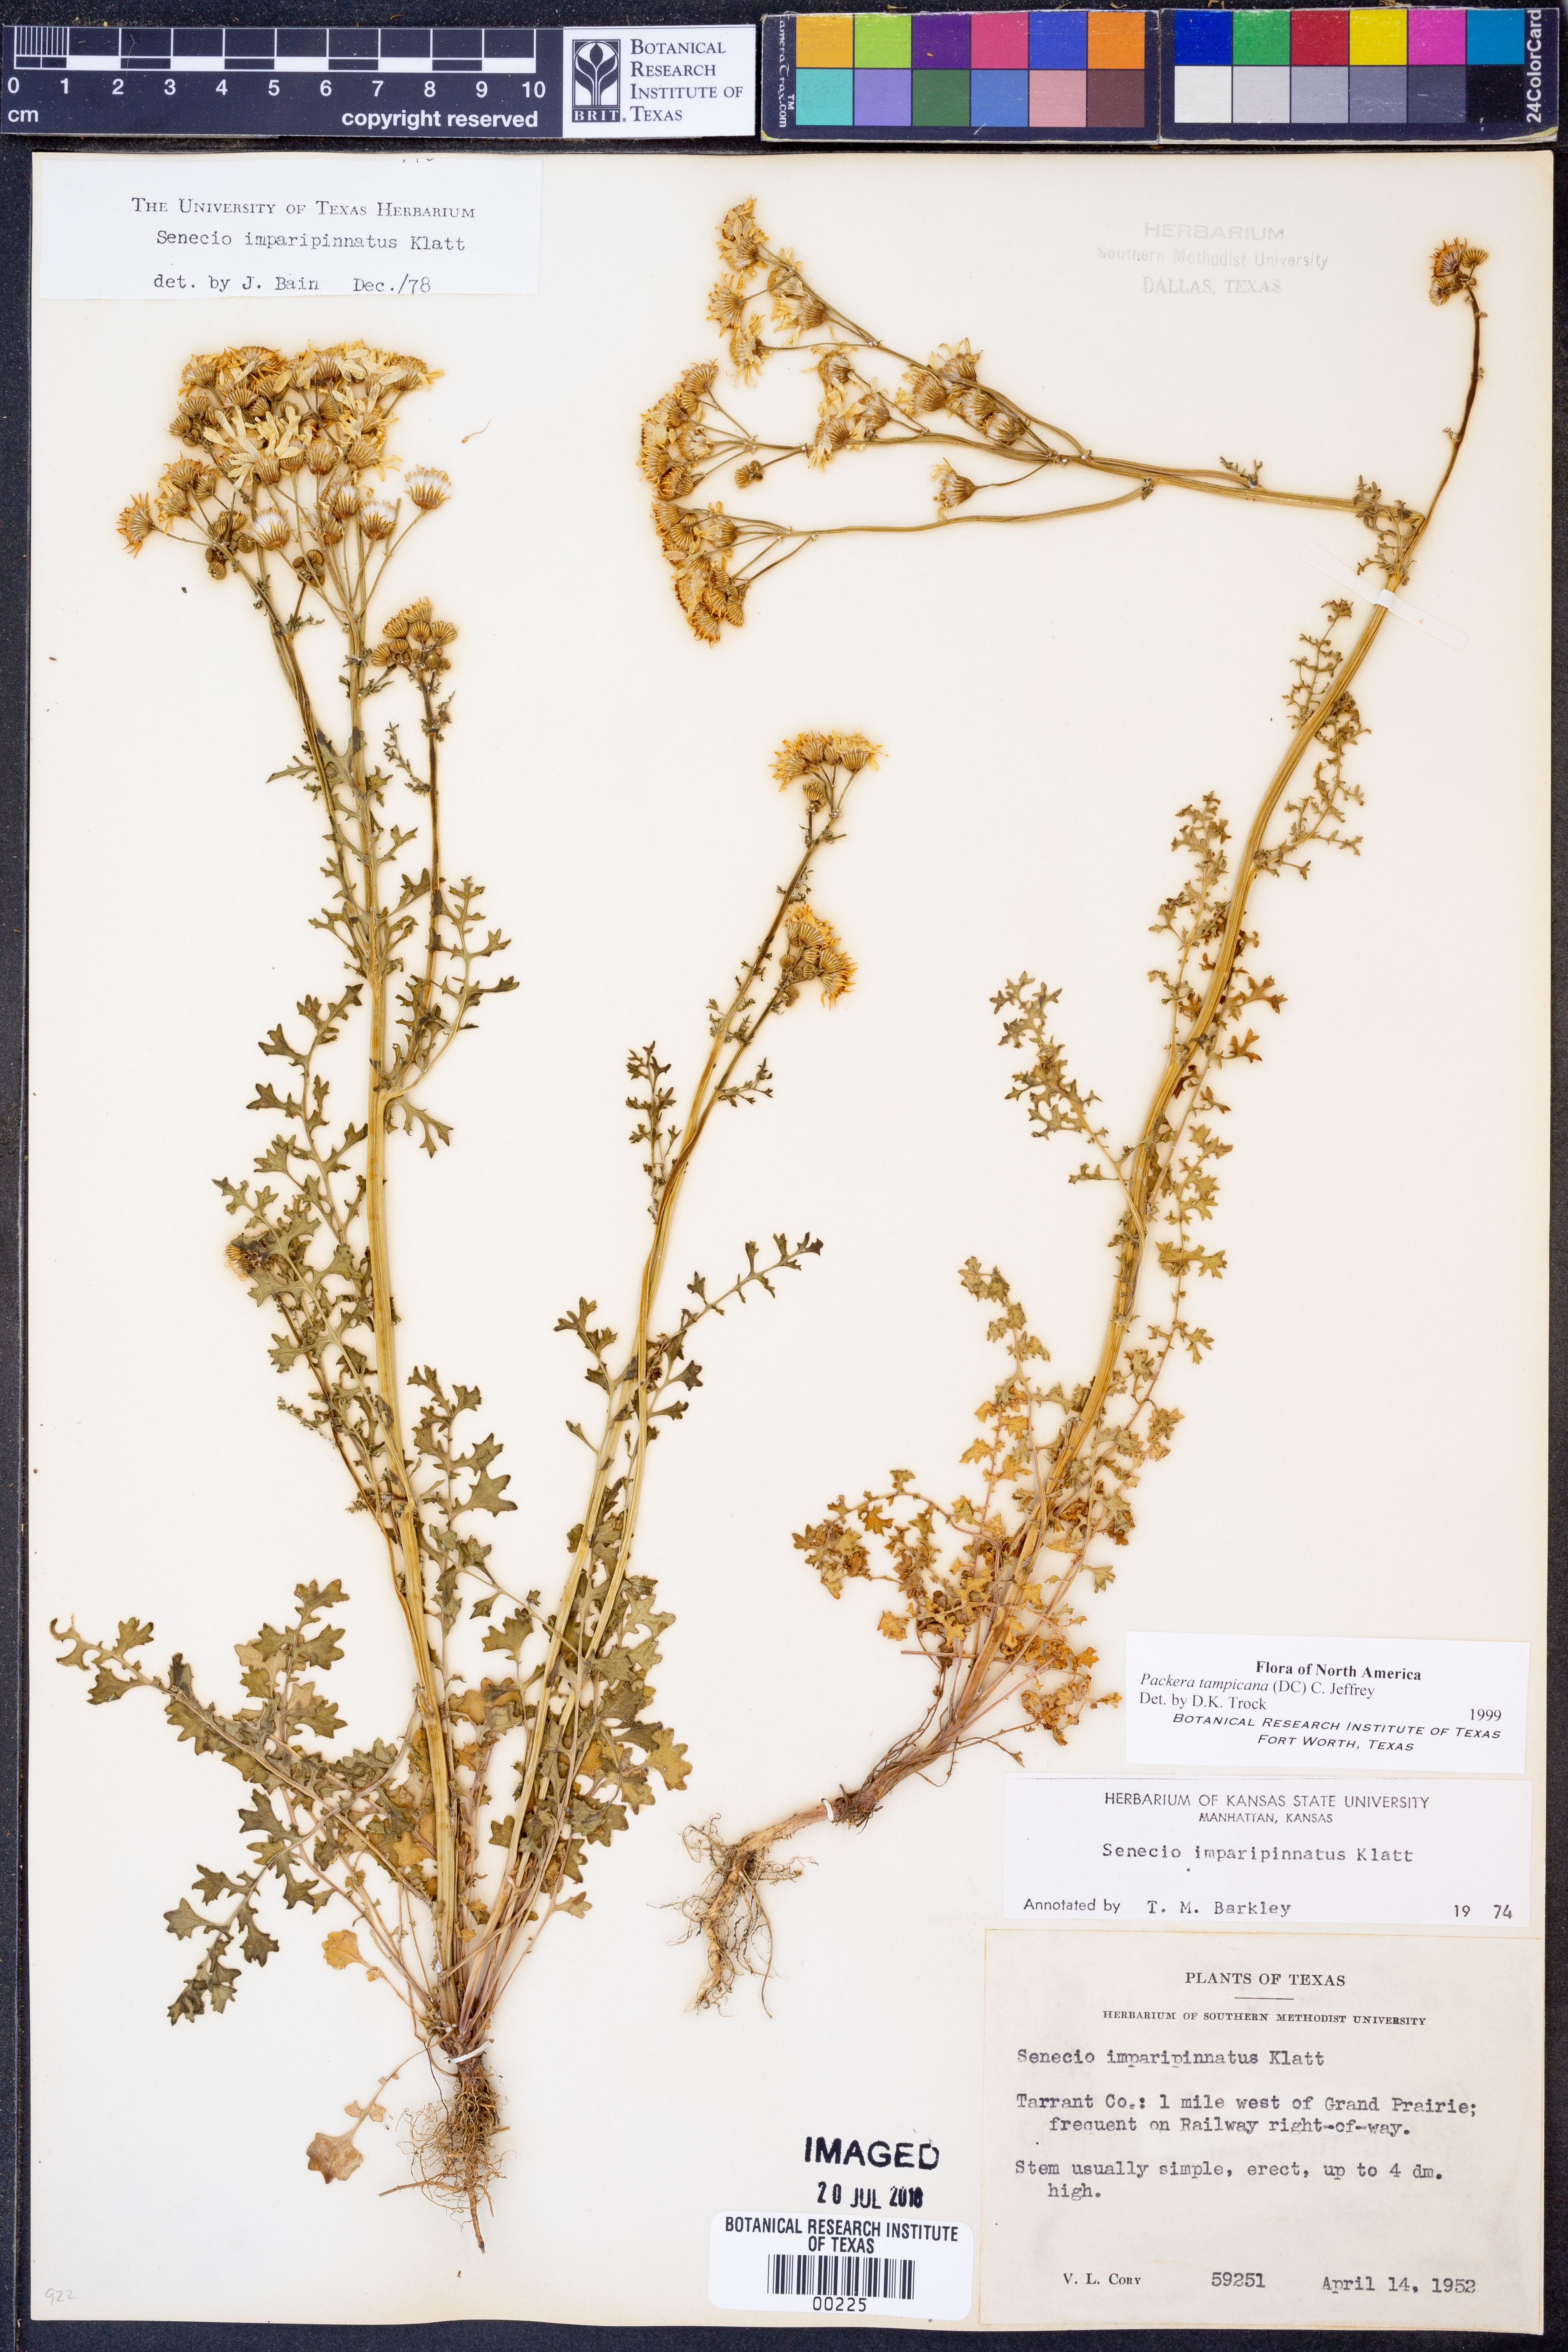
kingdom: Plantae
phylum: Tracheophyta
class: Magnoliopsida
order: Asterales
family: Asteraceae
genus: Packera
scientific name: Packera tampicana
